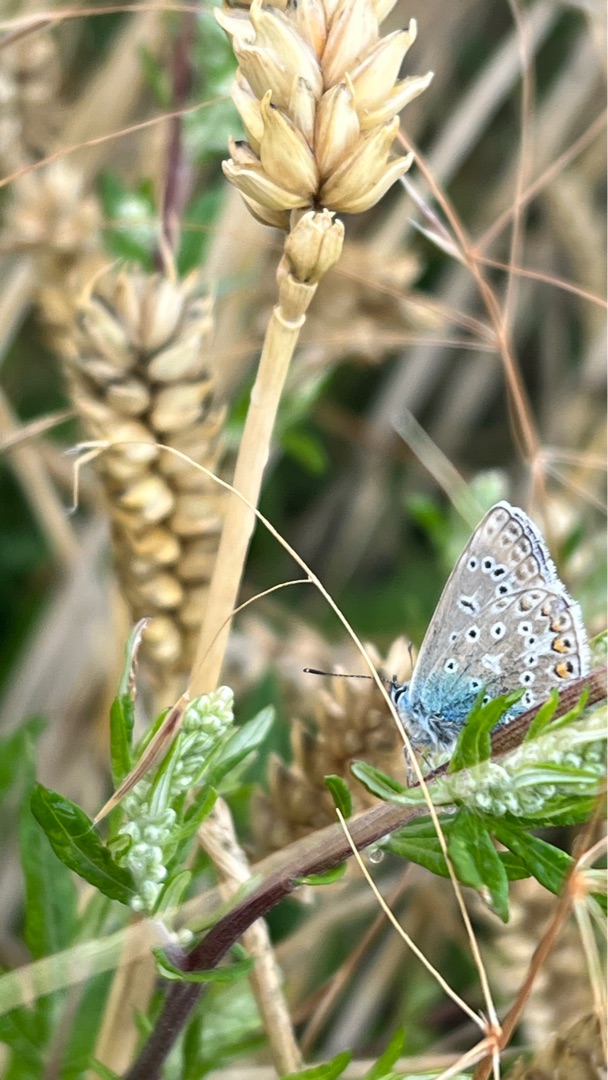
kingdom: Animalia
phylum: Arthropoda
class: Insecta
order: Lepidoptera
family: Lycaenidae
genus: Polyommatus
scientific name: Polyommatus icarus
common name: Almindelig blåfugl
